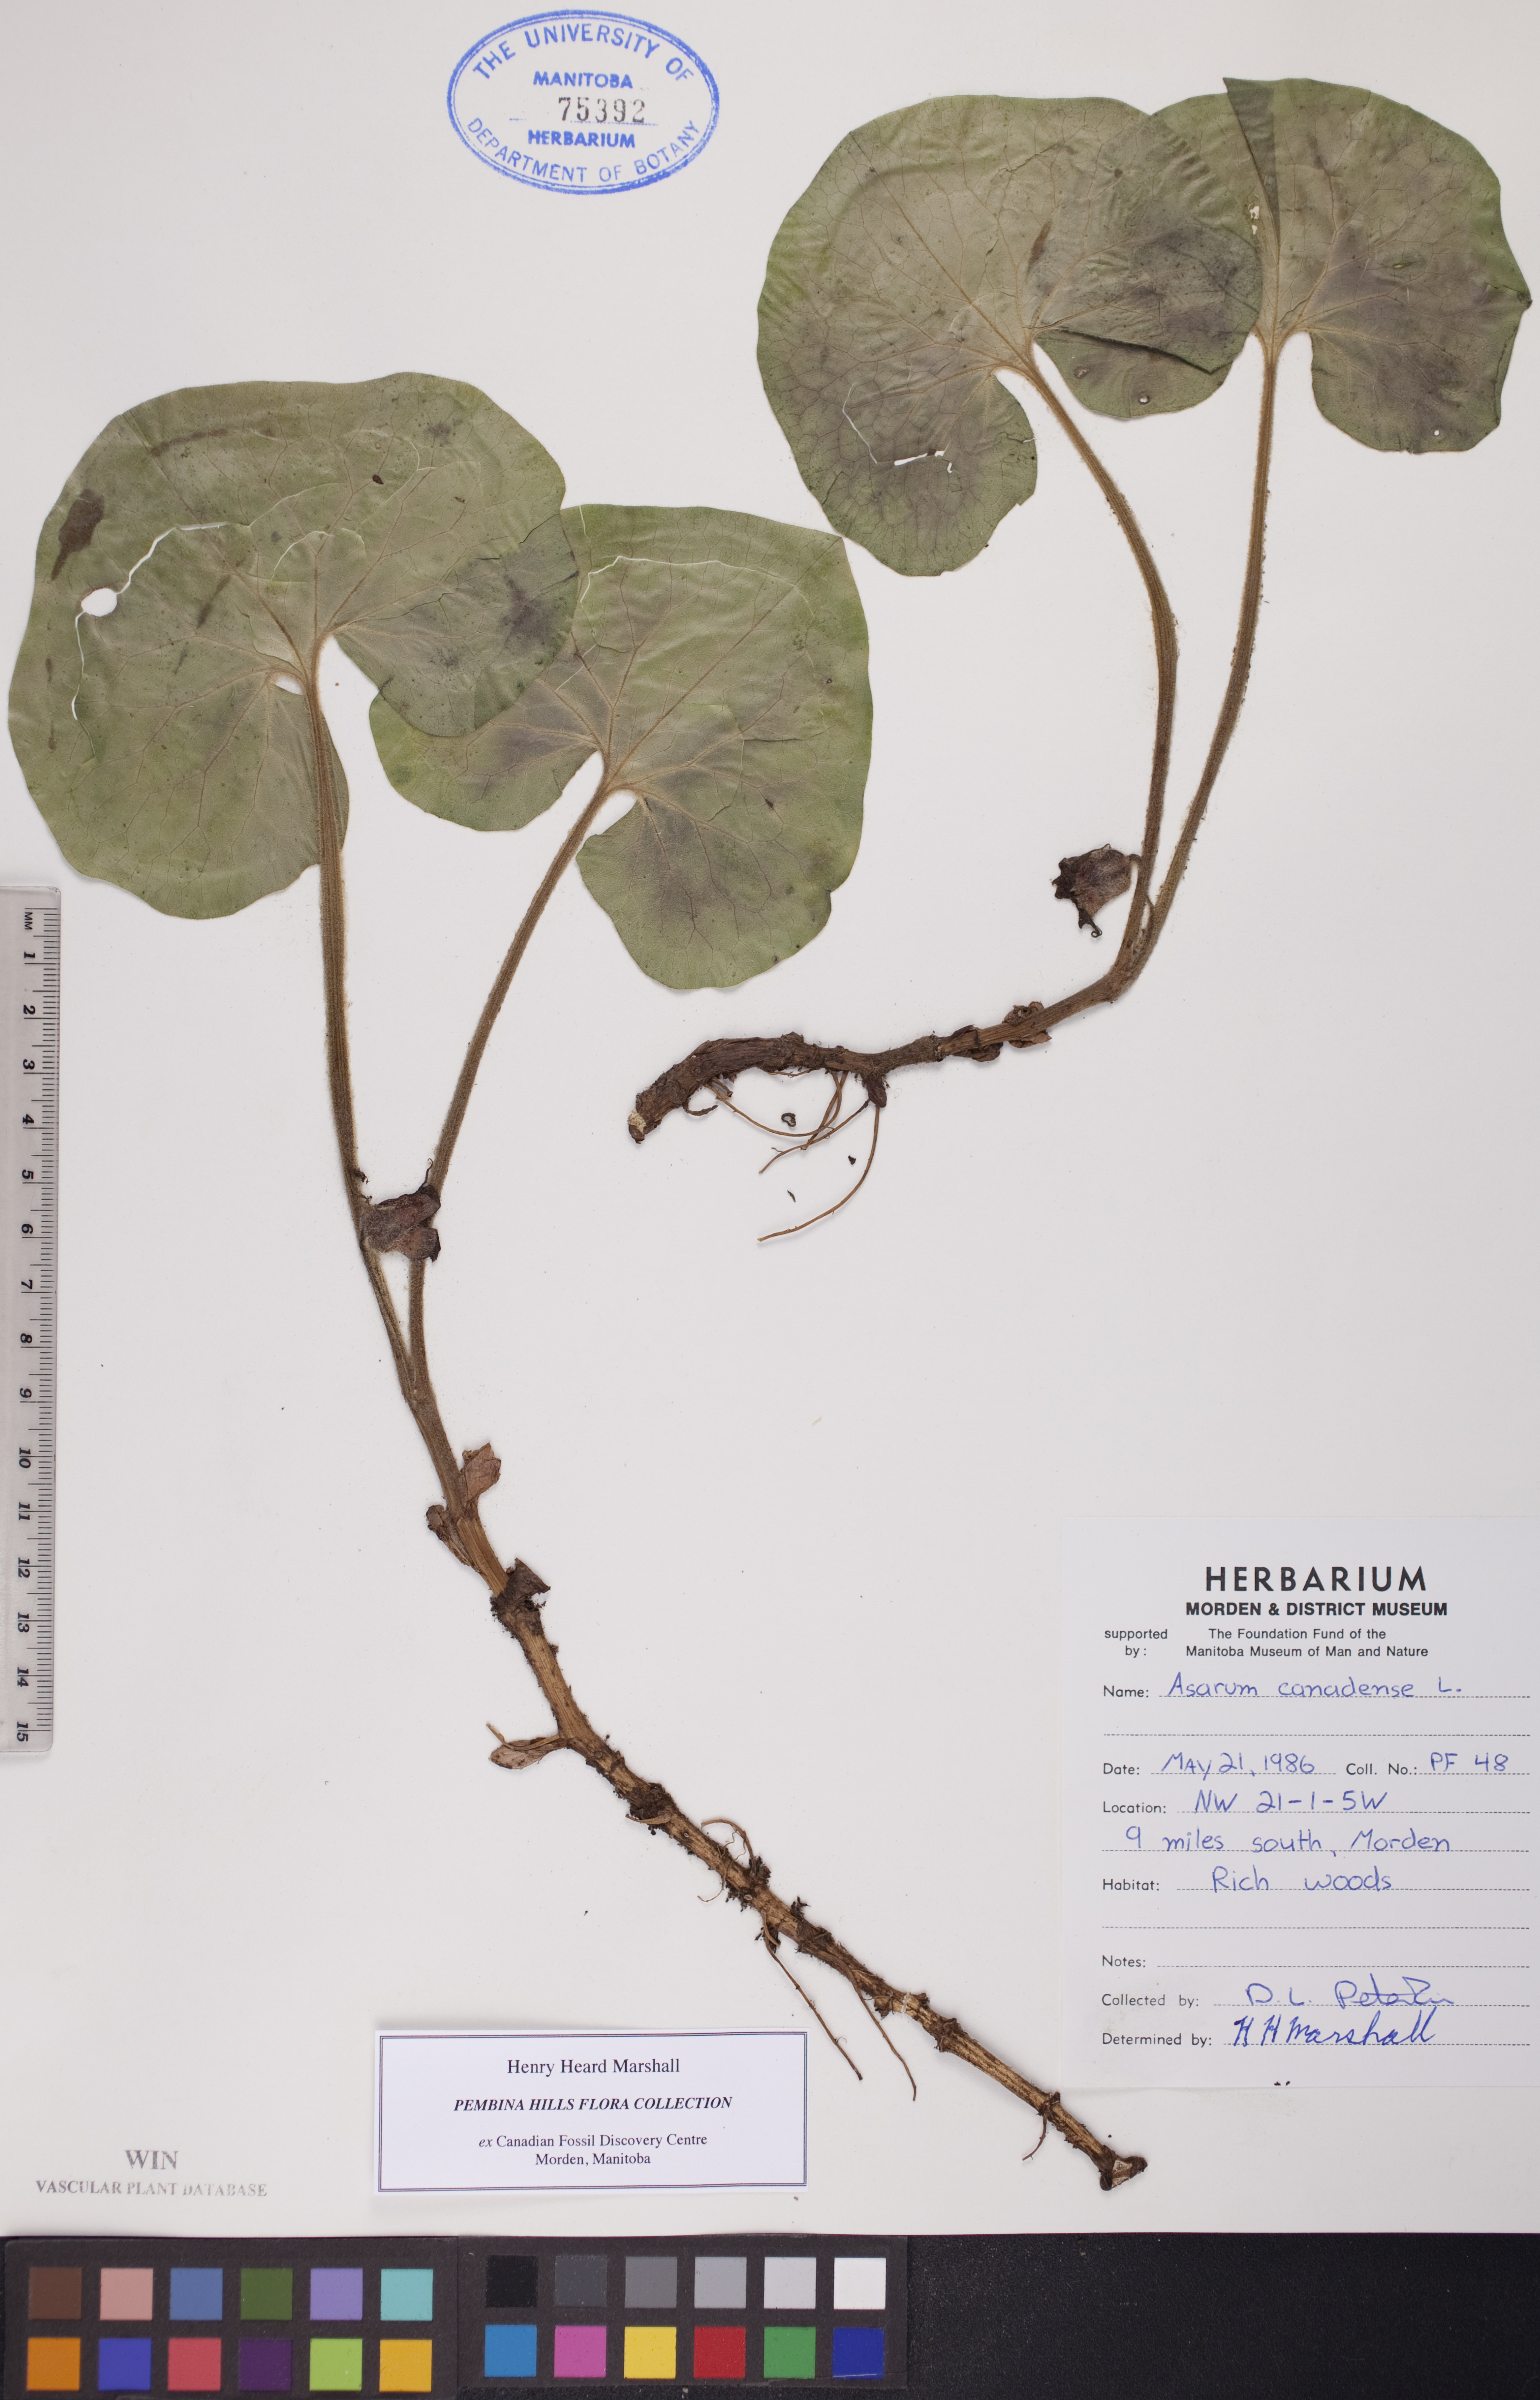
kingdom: Plantae
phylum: Tracheophyta
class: Magnoliopsida
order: Piperales
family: Aristolochiaceae
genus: Asarum
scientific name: Asarum canadense
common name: Wild ginger
